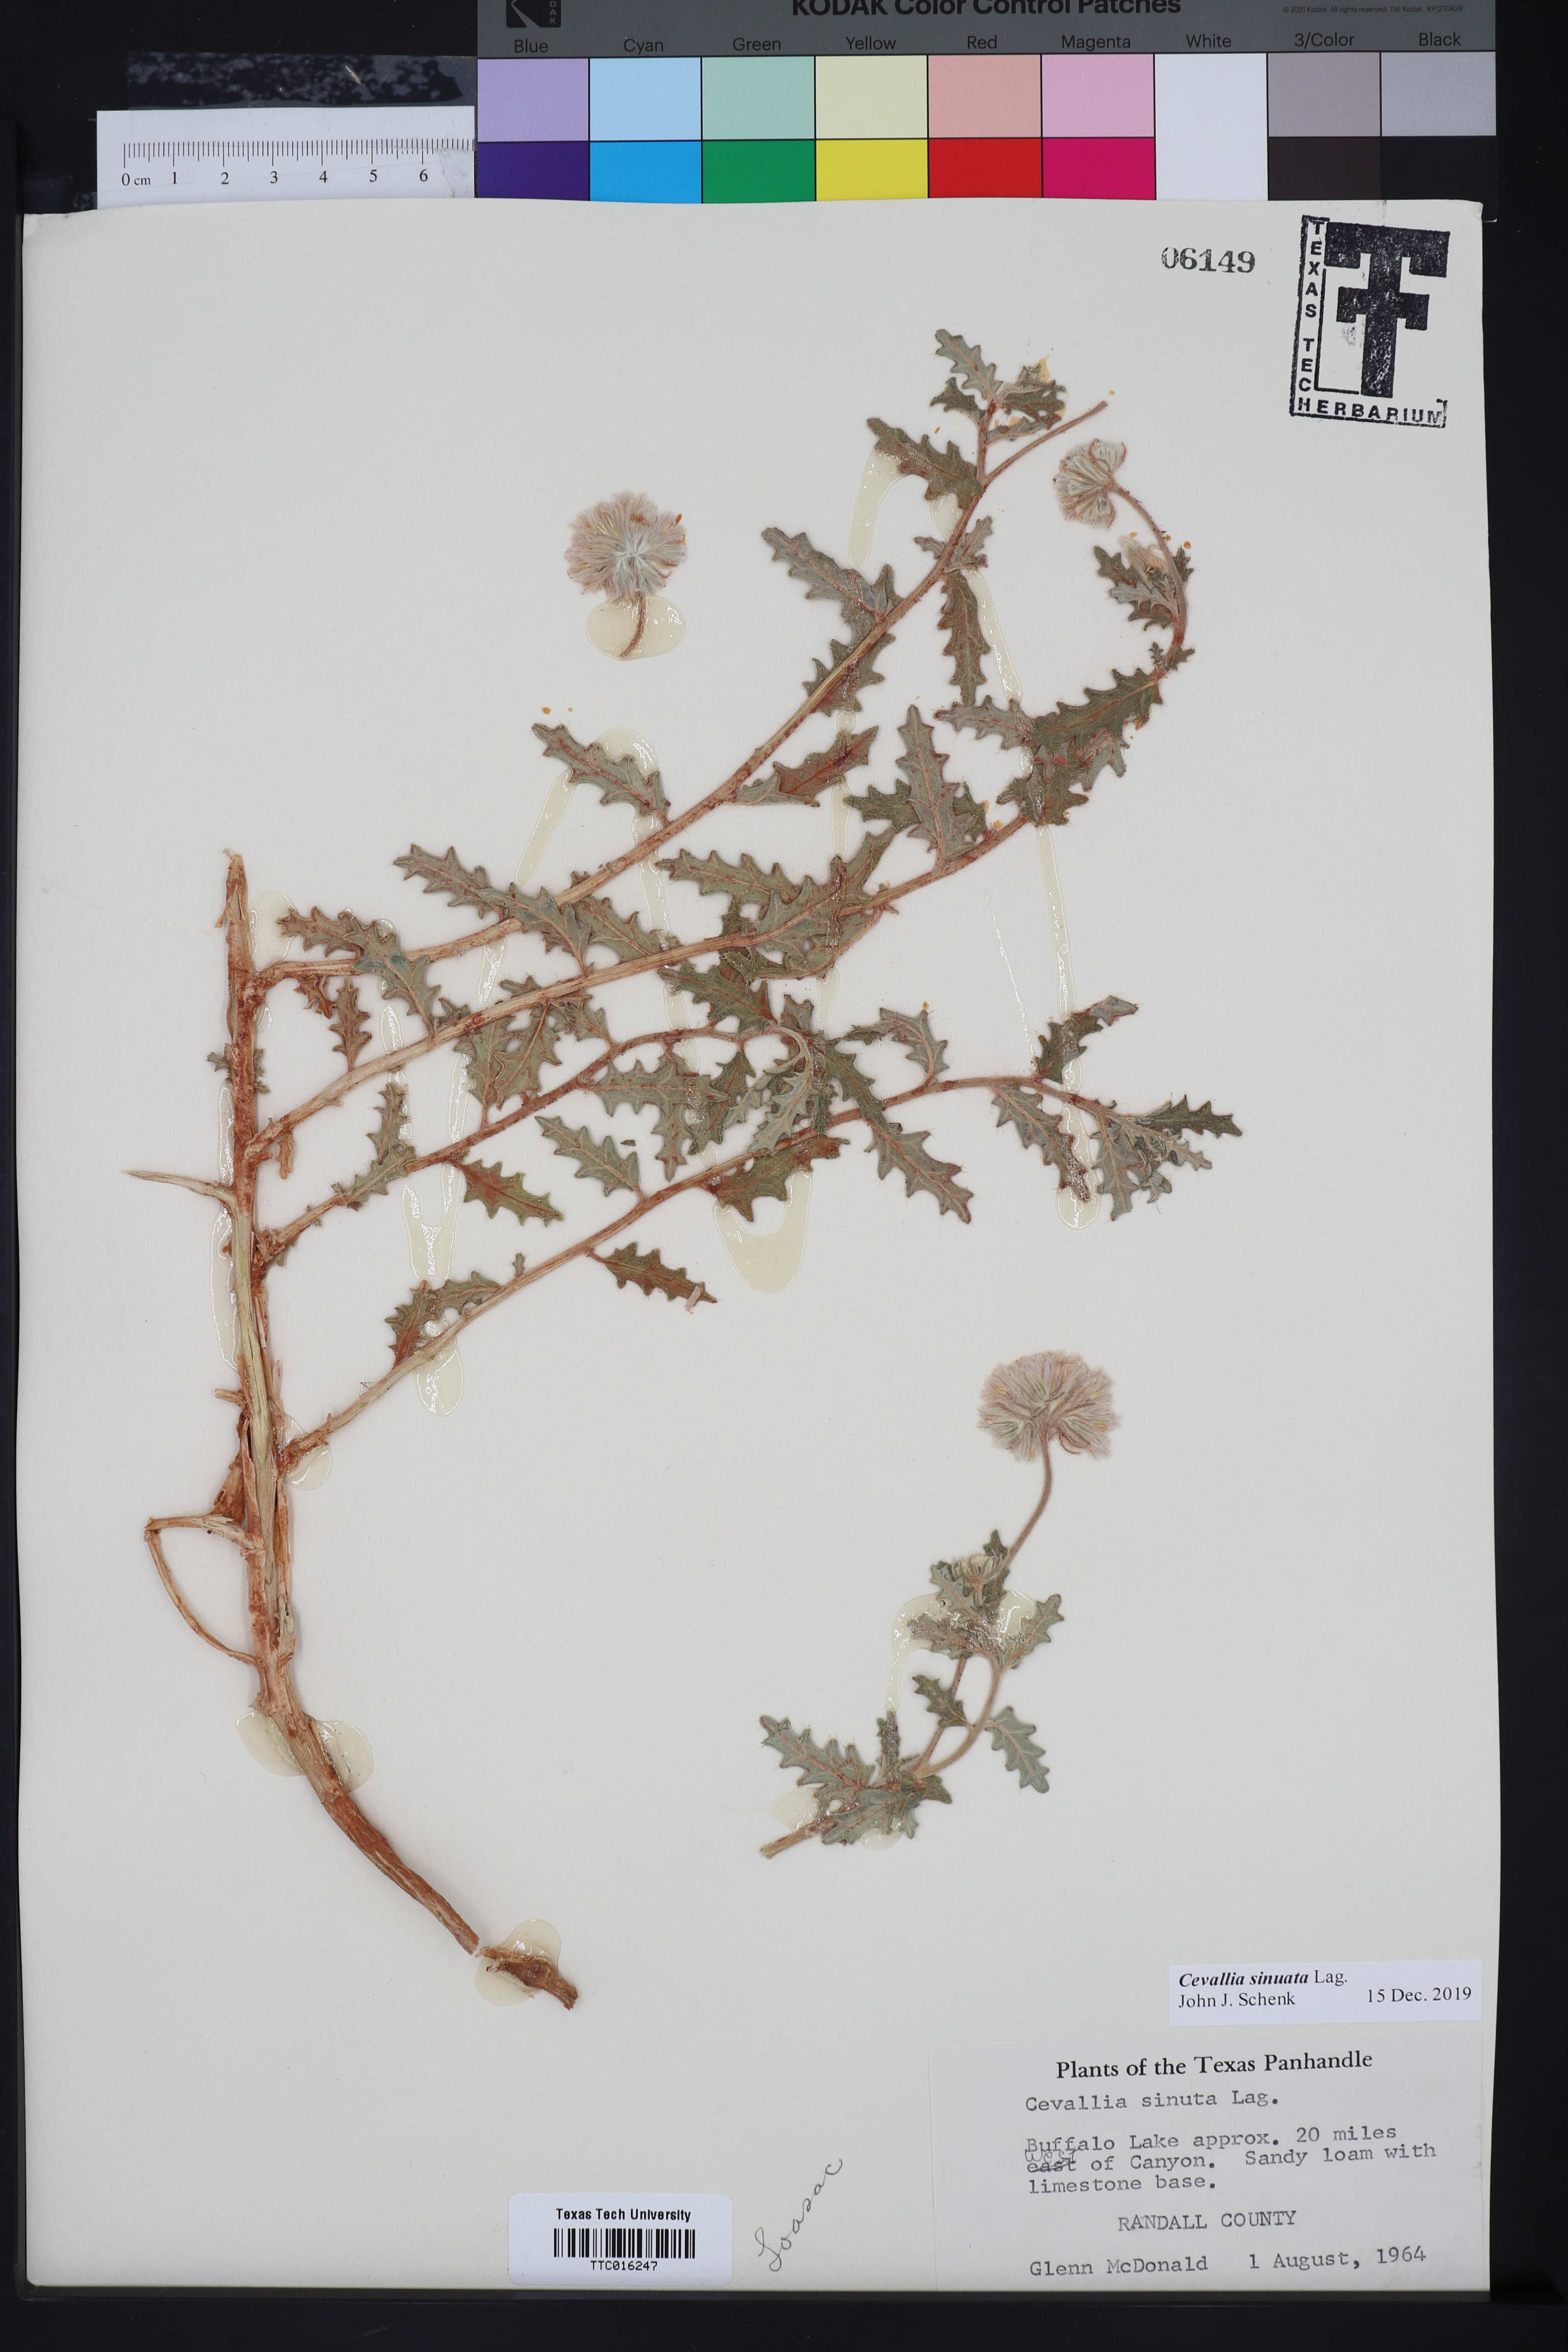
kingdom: Plantae
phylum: Tracheophyta
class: Magnoliopsida
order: Cornales
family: Loasaceae
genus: Cevallia
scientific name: Cevallia sinuata
